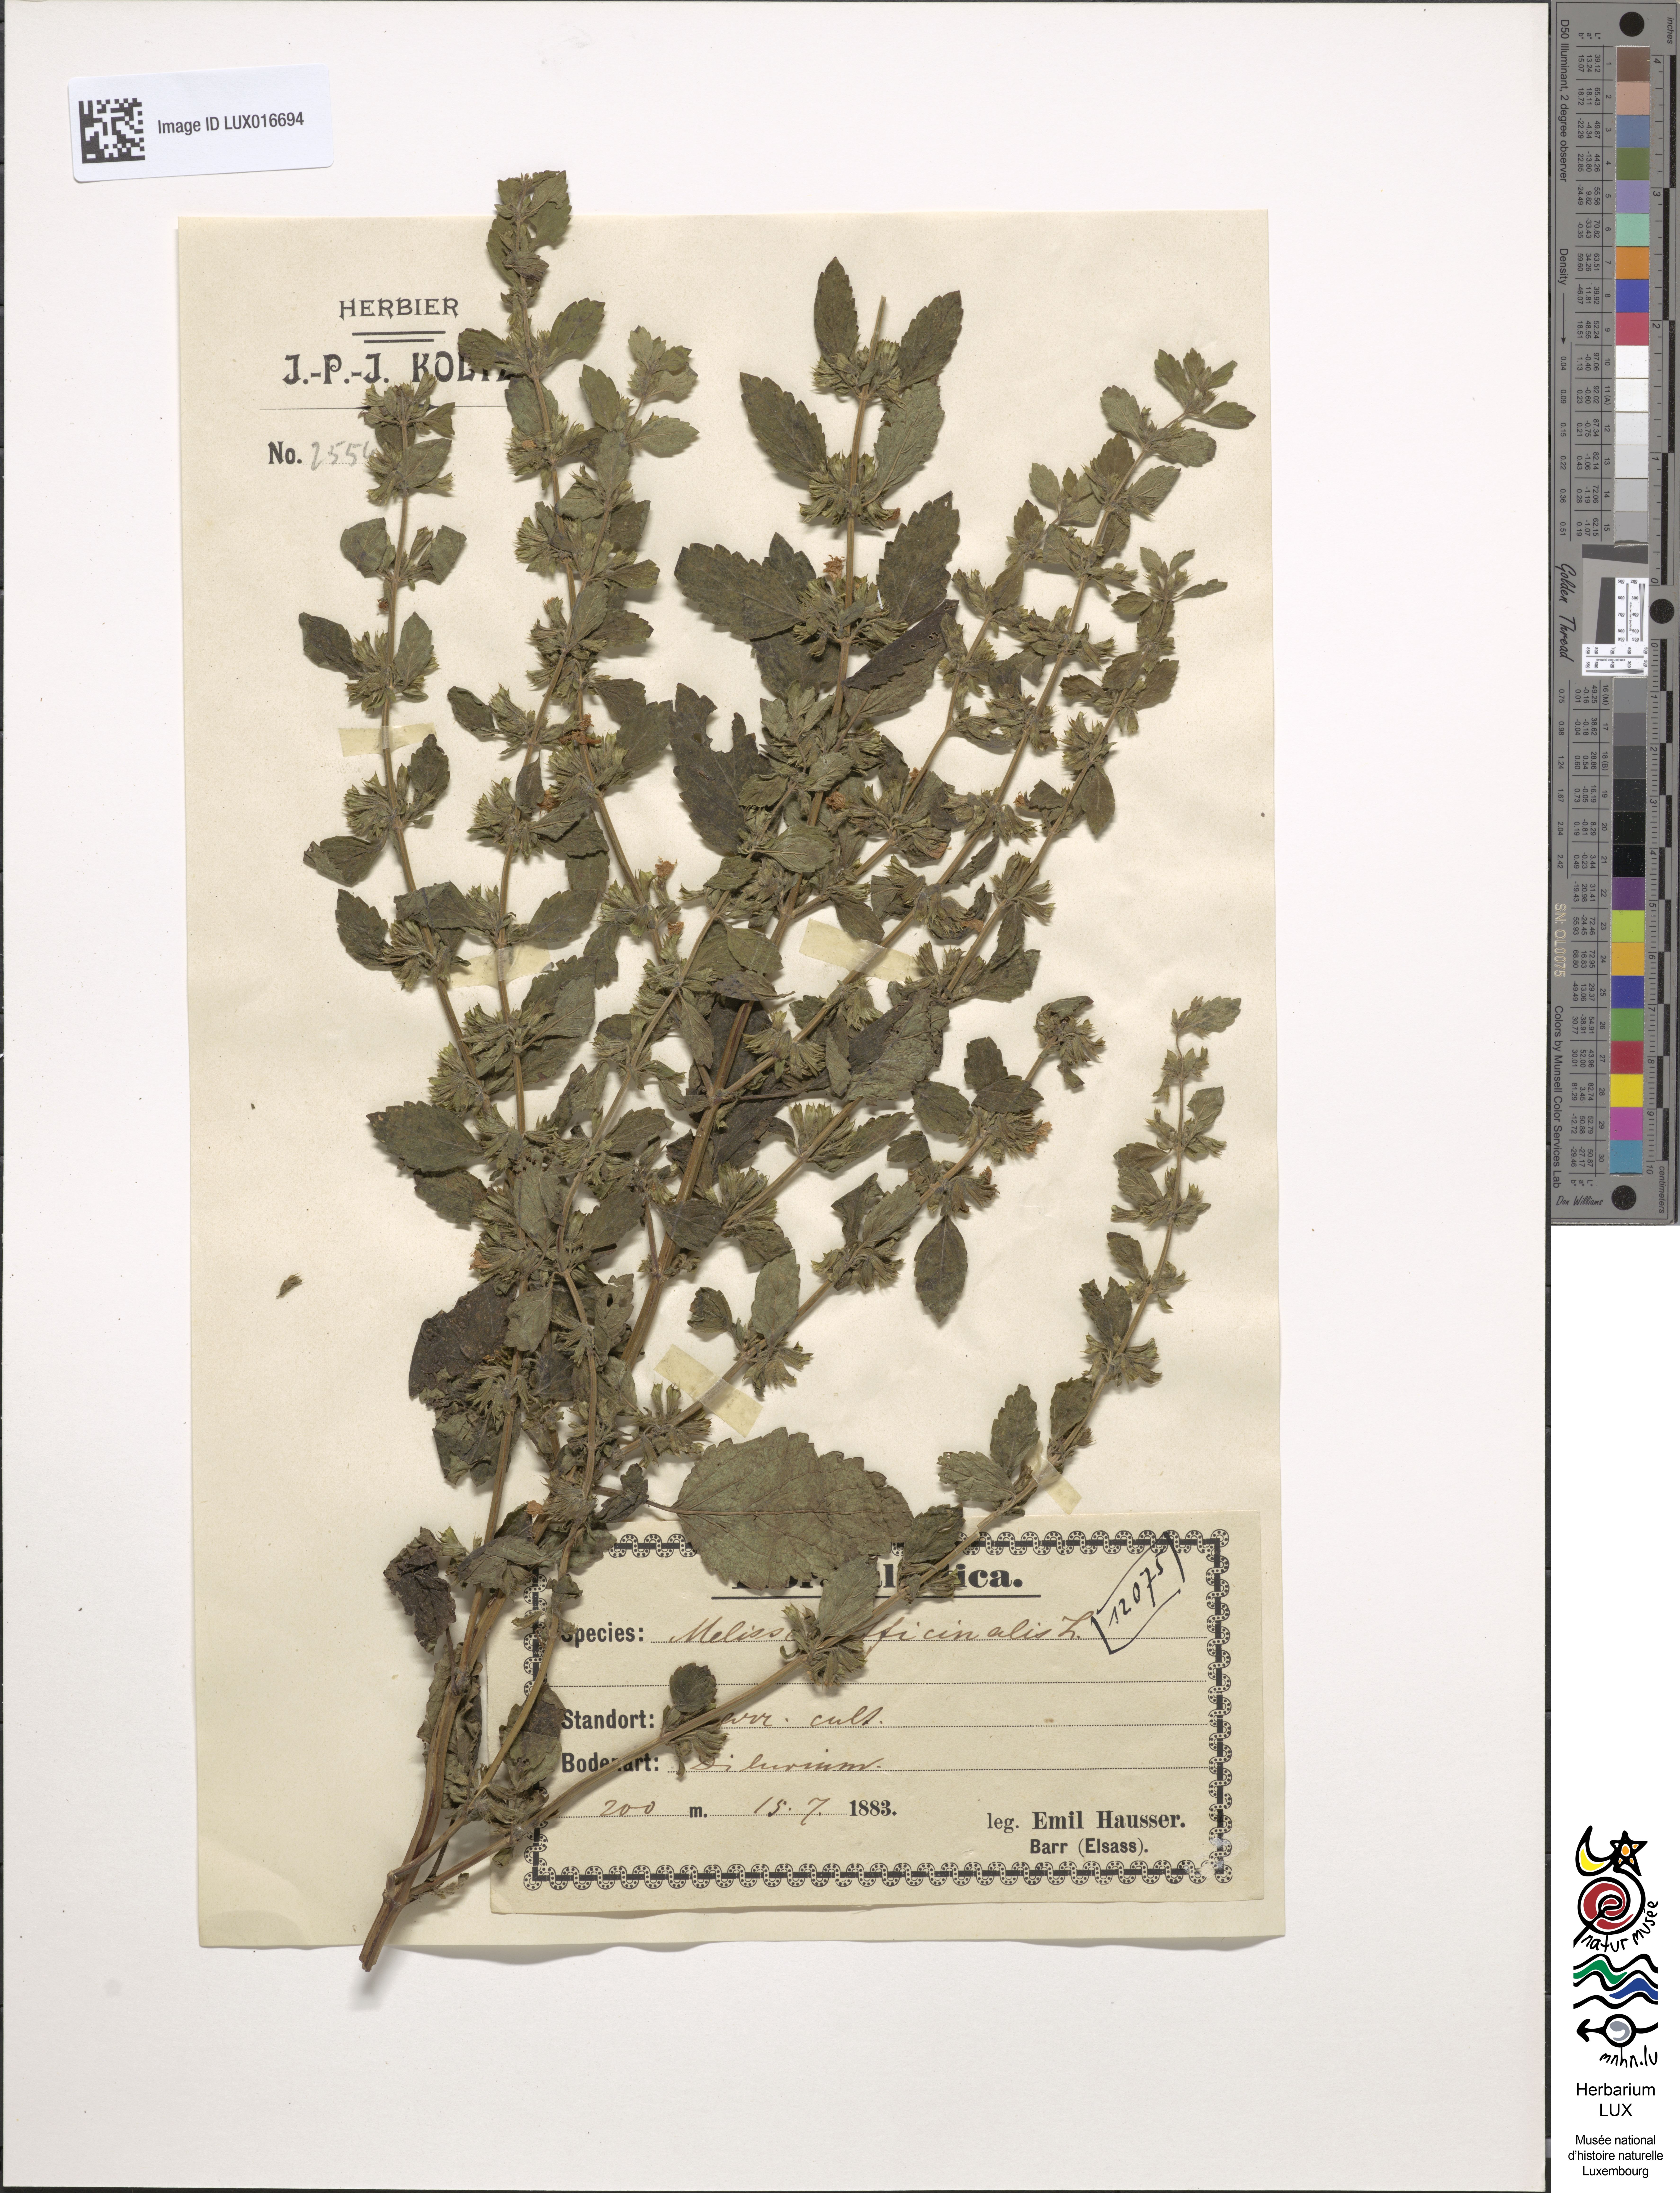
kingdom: Plantae
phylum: Tracheophyta
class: Magnoliopsida
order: Lamiales
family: Lamiaceae
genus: Melissa
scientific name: Melissa officinalis
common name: Balm
